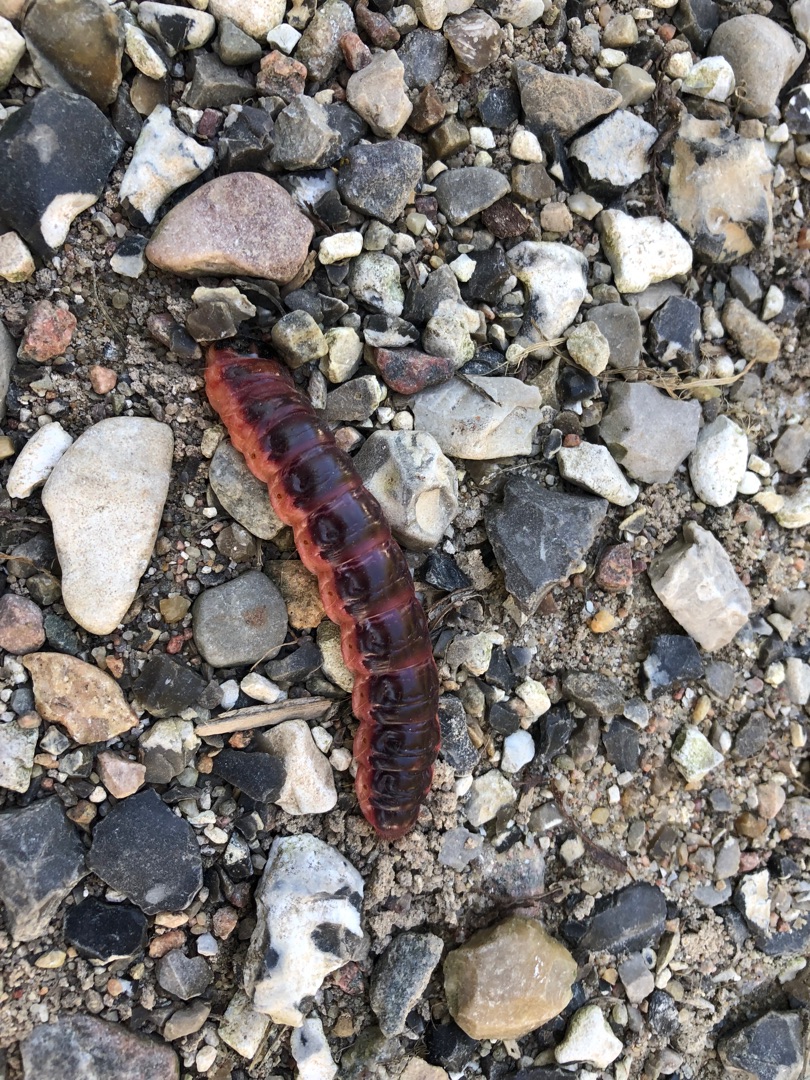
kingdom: Animalia
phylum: Arthropoda
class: Insecta
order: Lepidoptera
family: Cossidae
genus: Cossus
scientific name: Cossus cossus
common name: Pileborer
